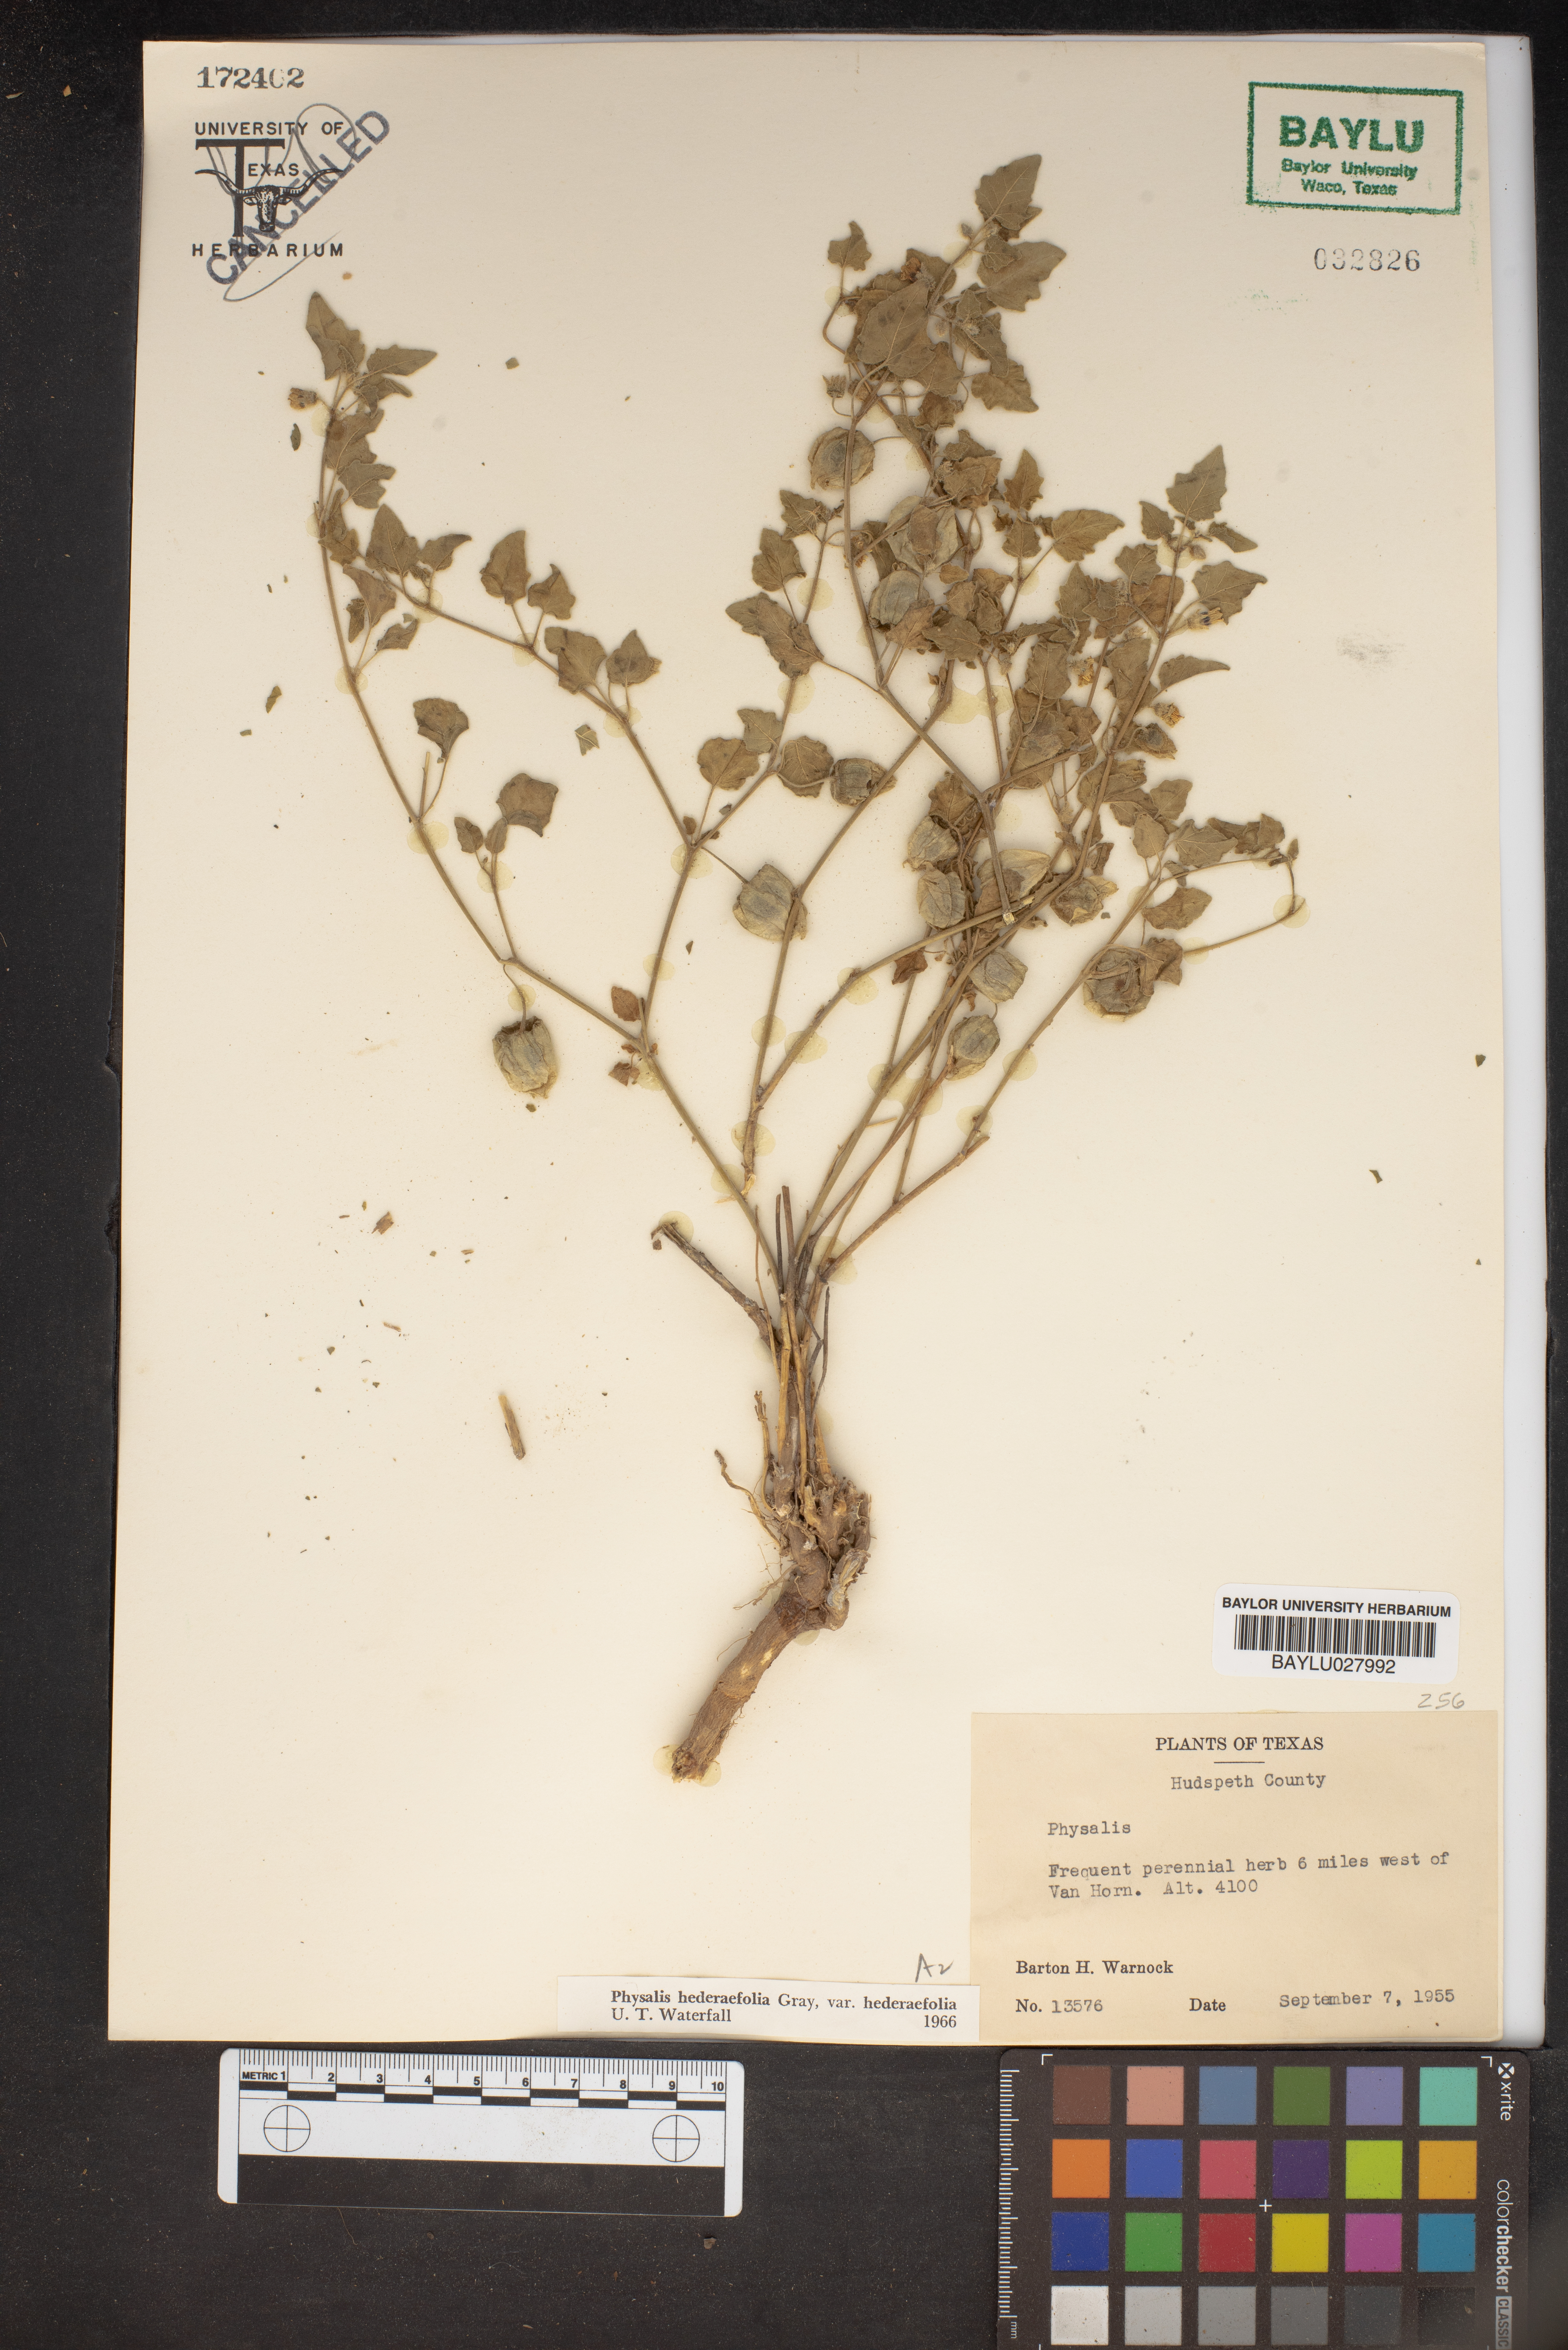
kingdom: Plantae
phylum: Tracheophyta
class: Magnoliopsida
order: Solanales
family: Solanaceae
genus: Physalis
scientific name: Physalis hederifolia
